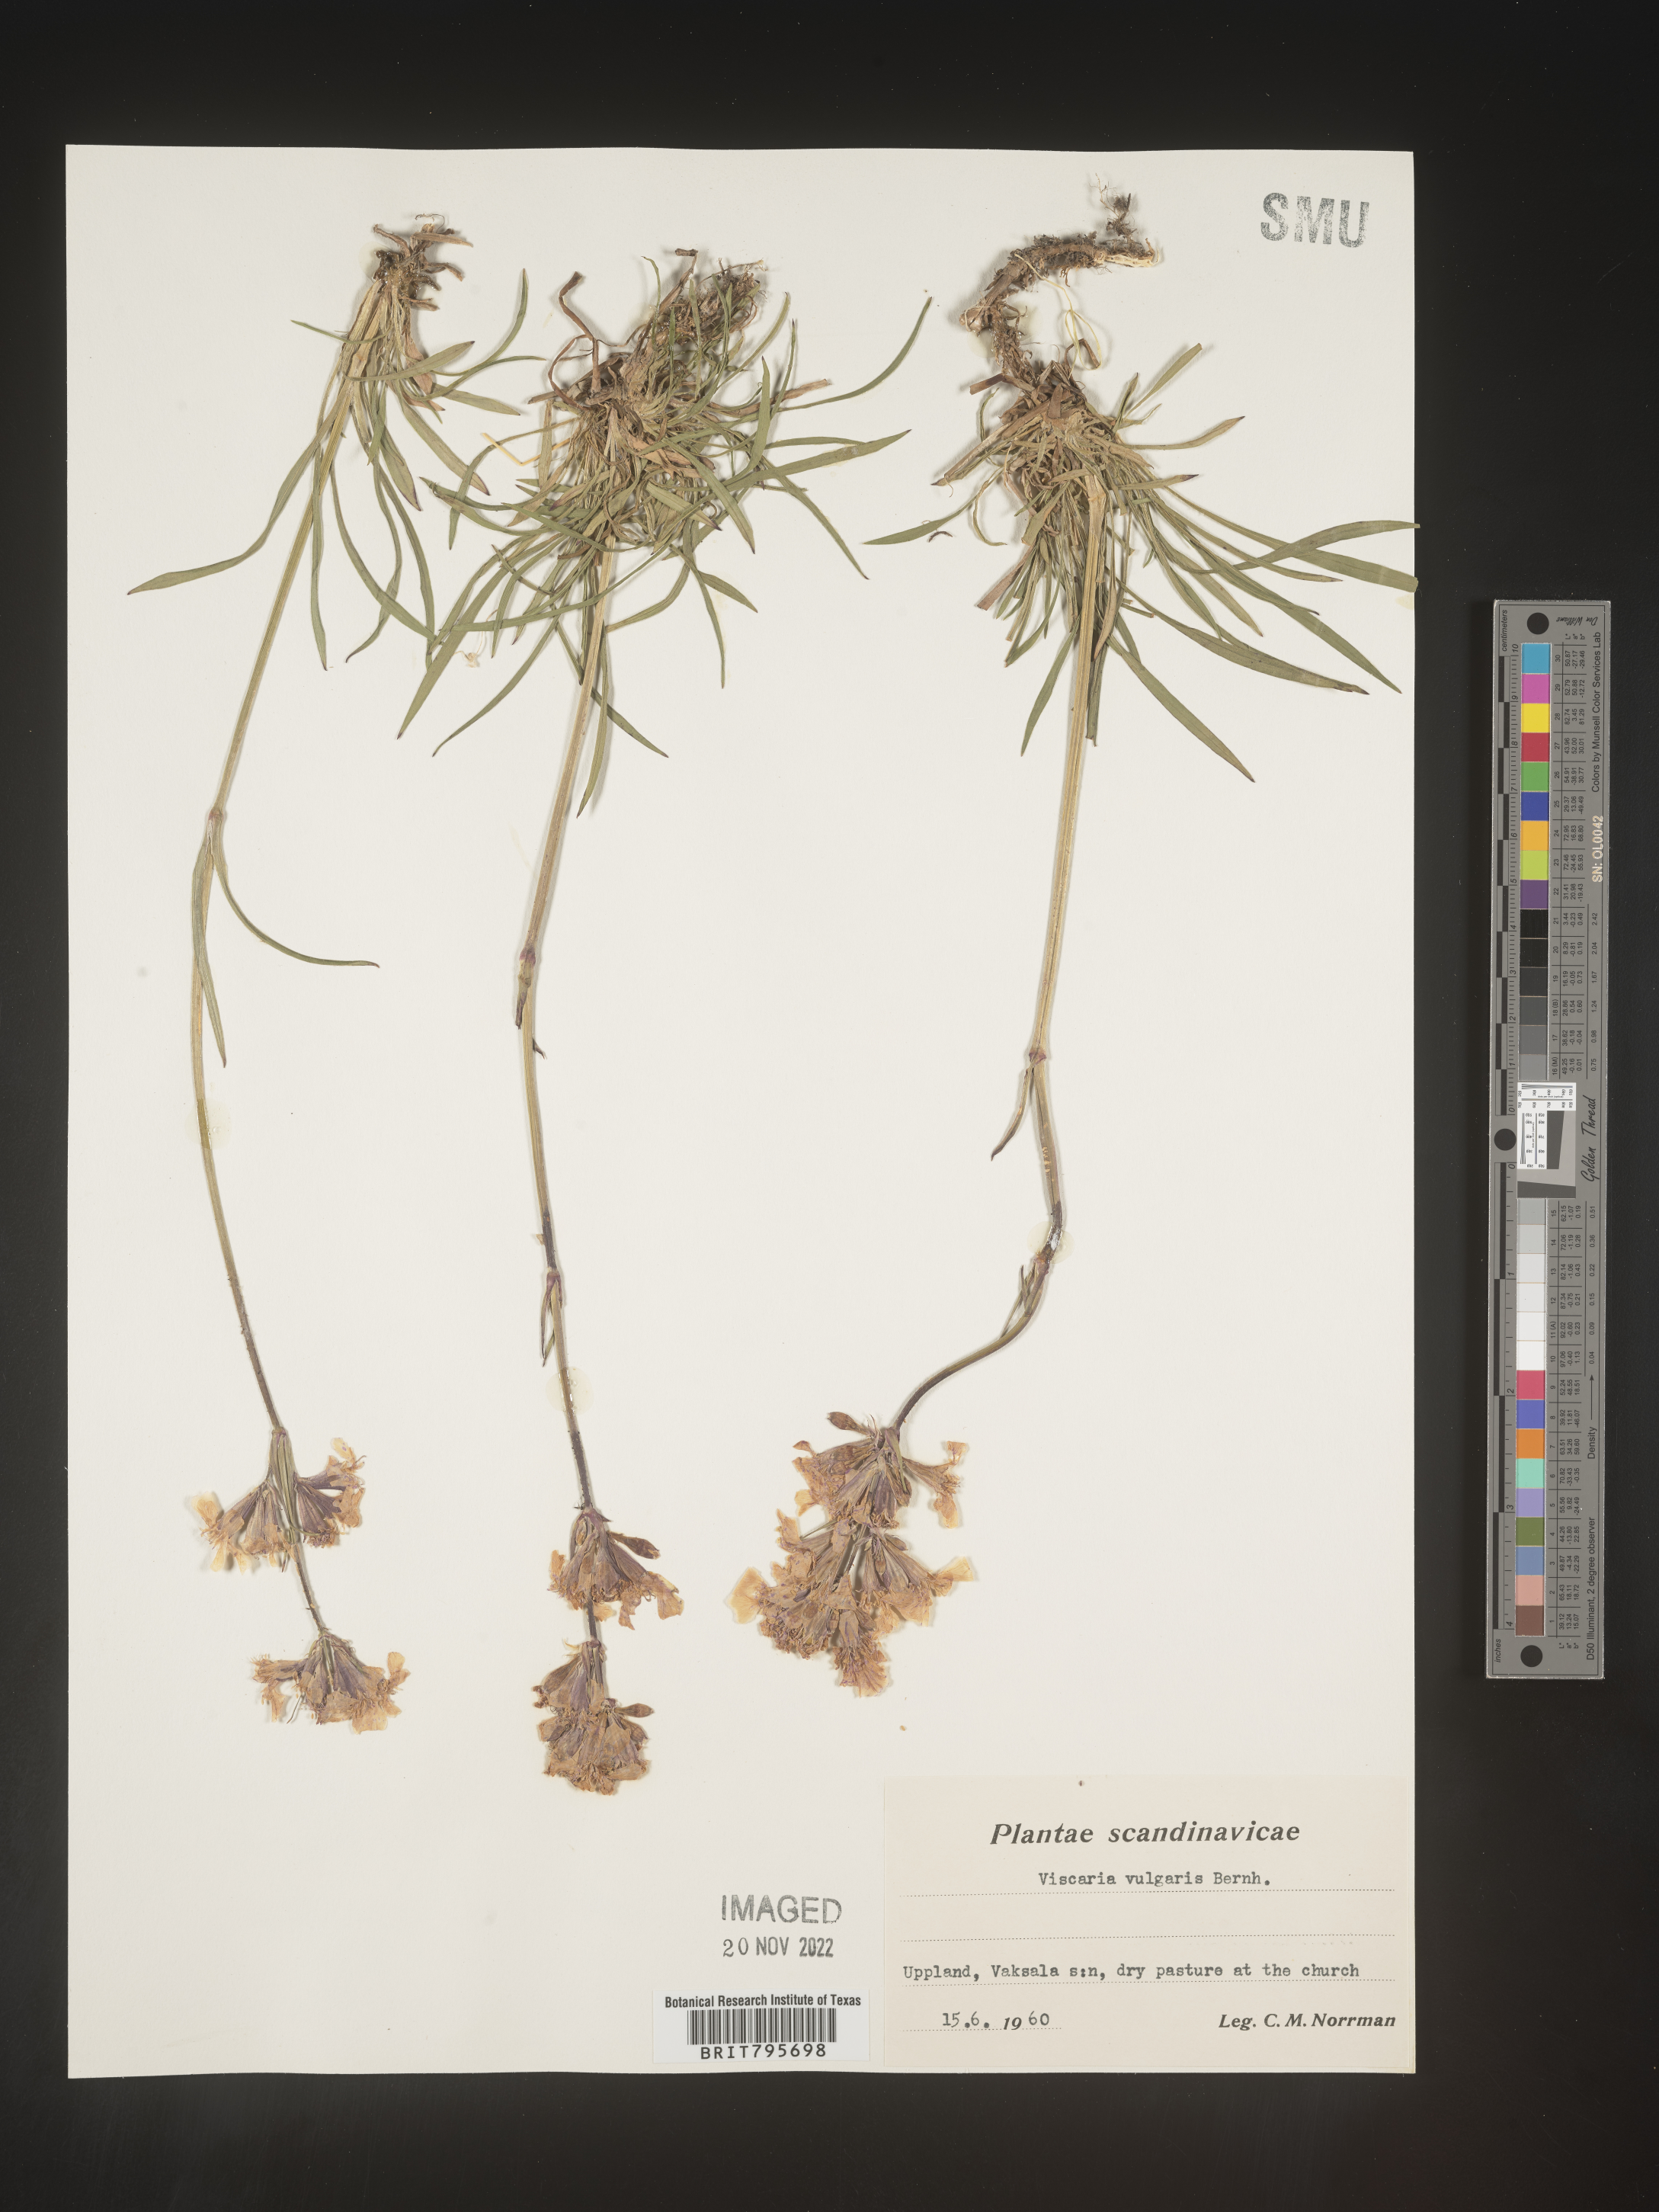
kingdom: Plantae
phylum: Tracheophyta
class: Magnoliopsida
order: Caryophyllales
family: Caryophyllaceae
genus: Viscaria
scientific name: Viscaria
